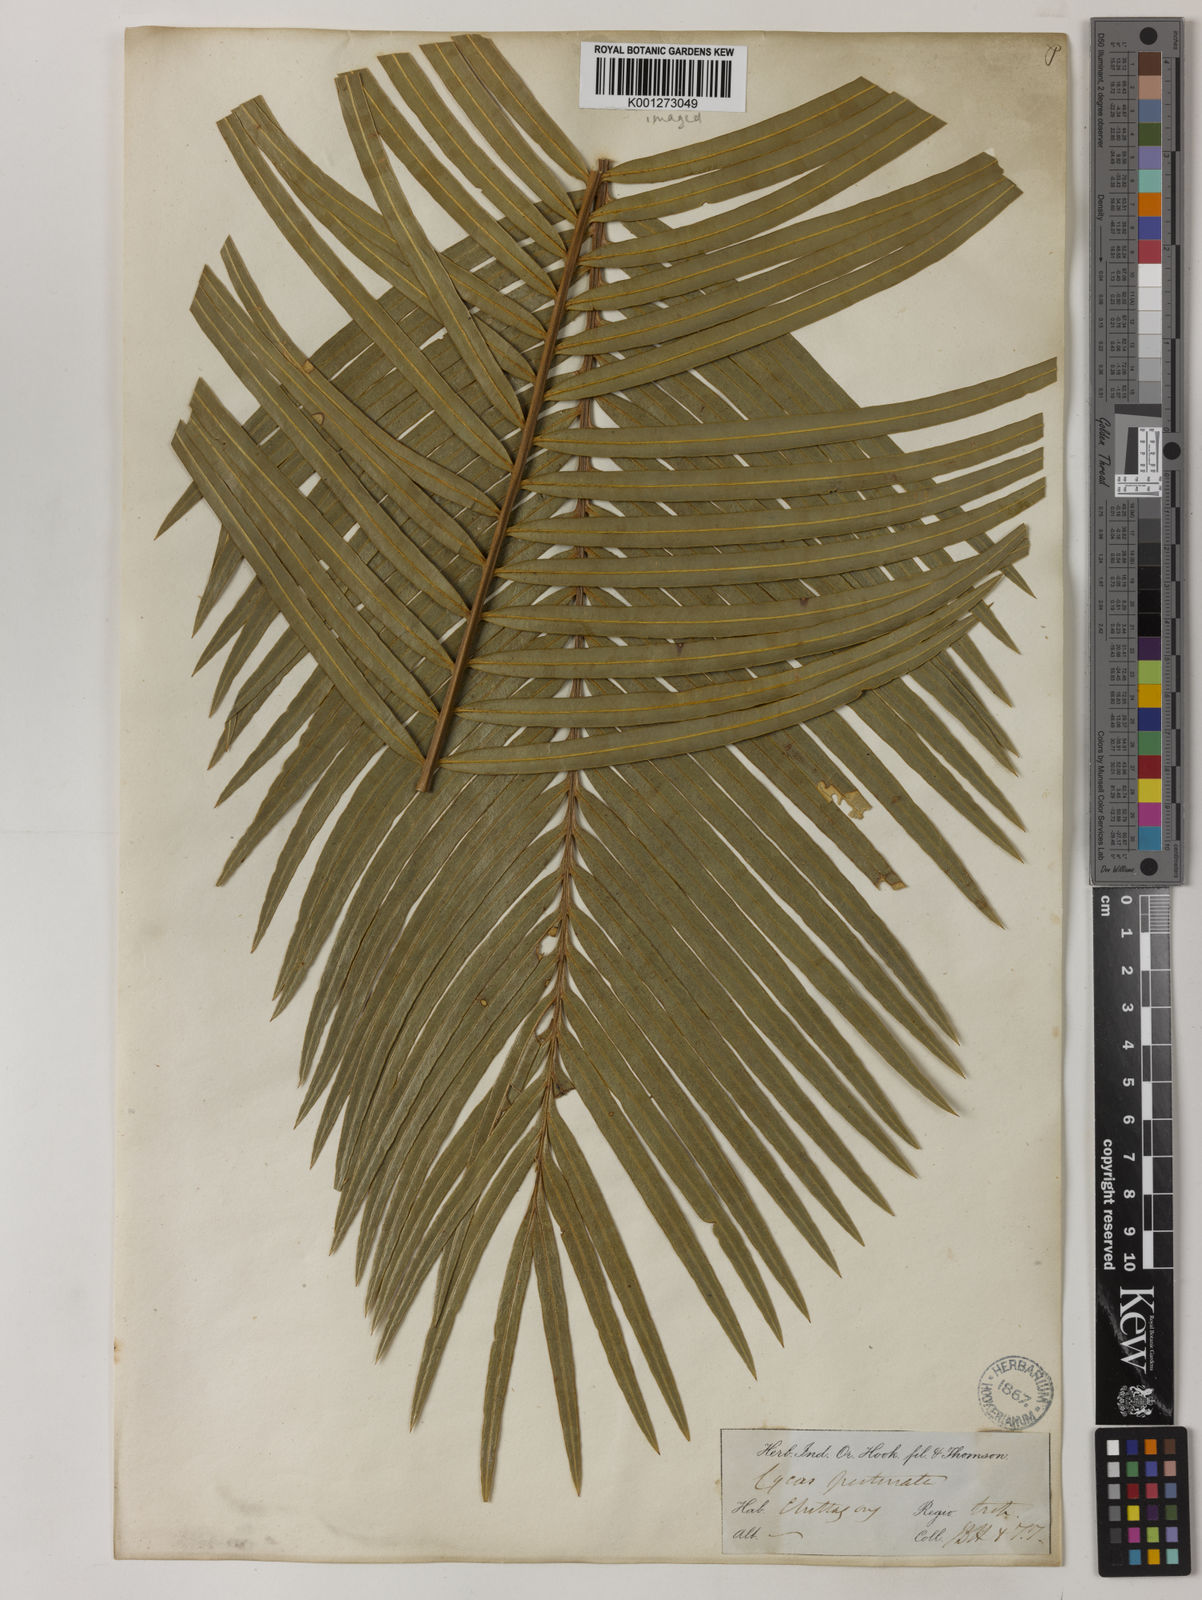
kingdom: Plantae
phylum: Tracheophyta
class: Cycadopsida
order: Cycadales
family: Cycadaceae
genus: Cycas
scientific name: Cycas pectinata
